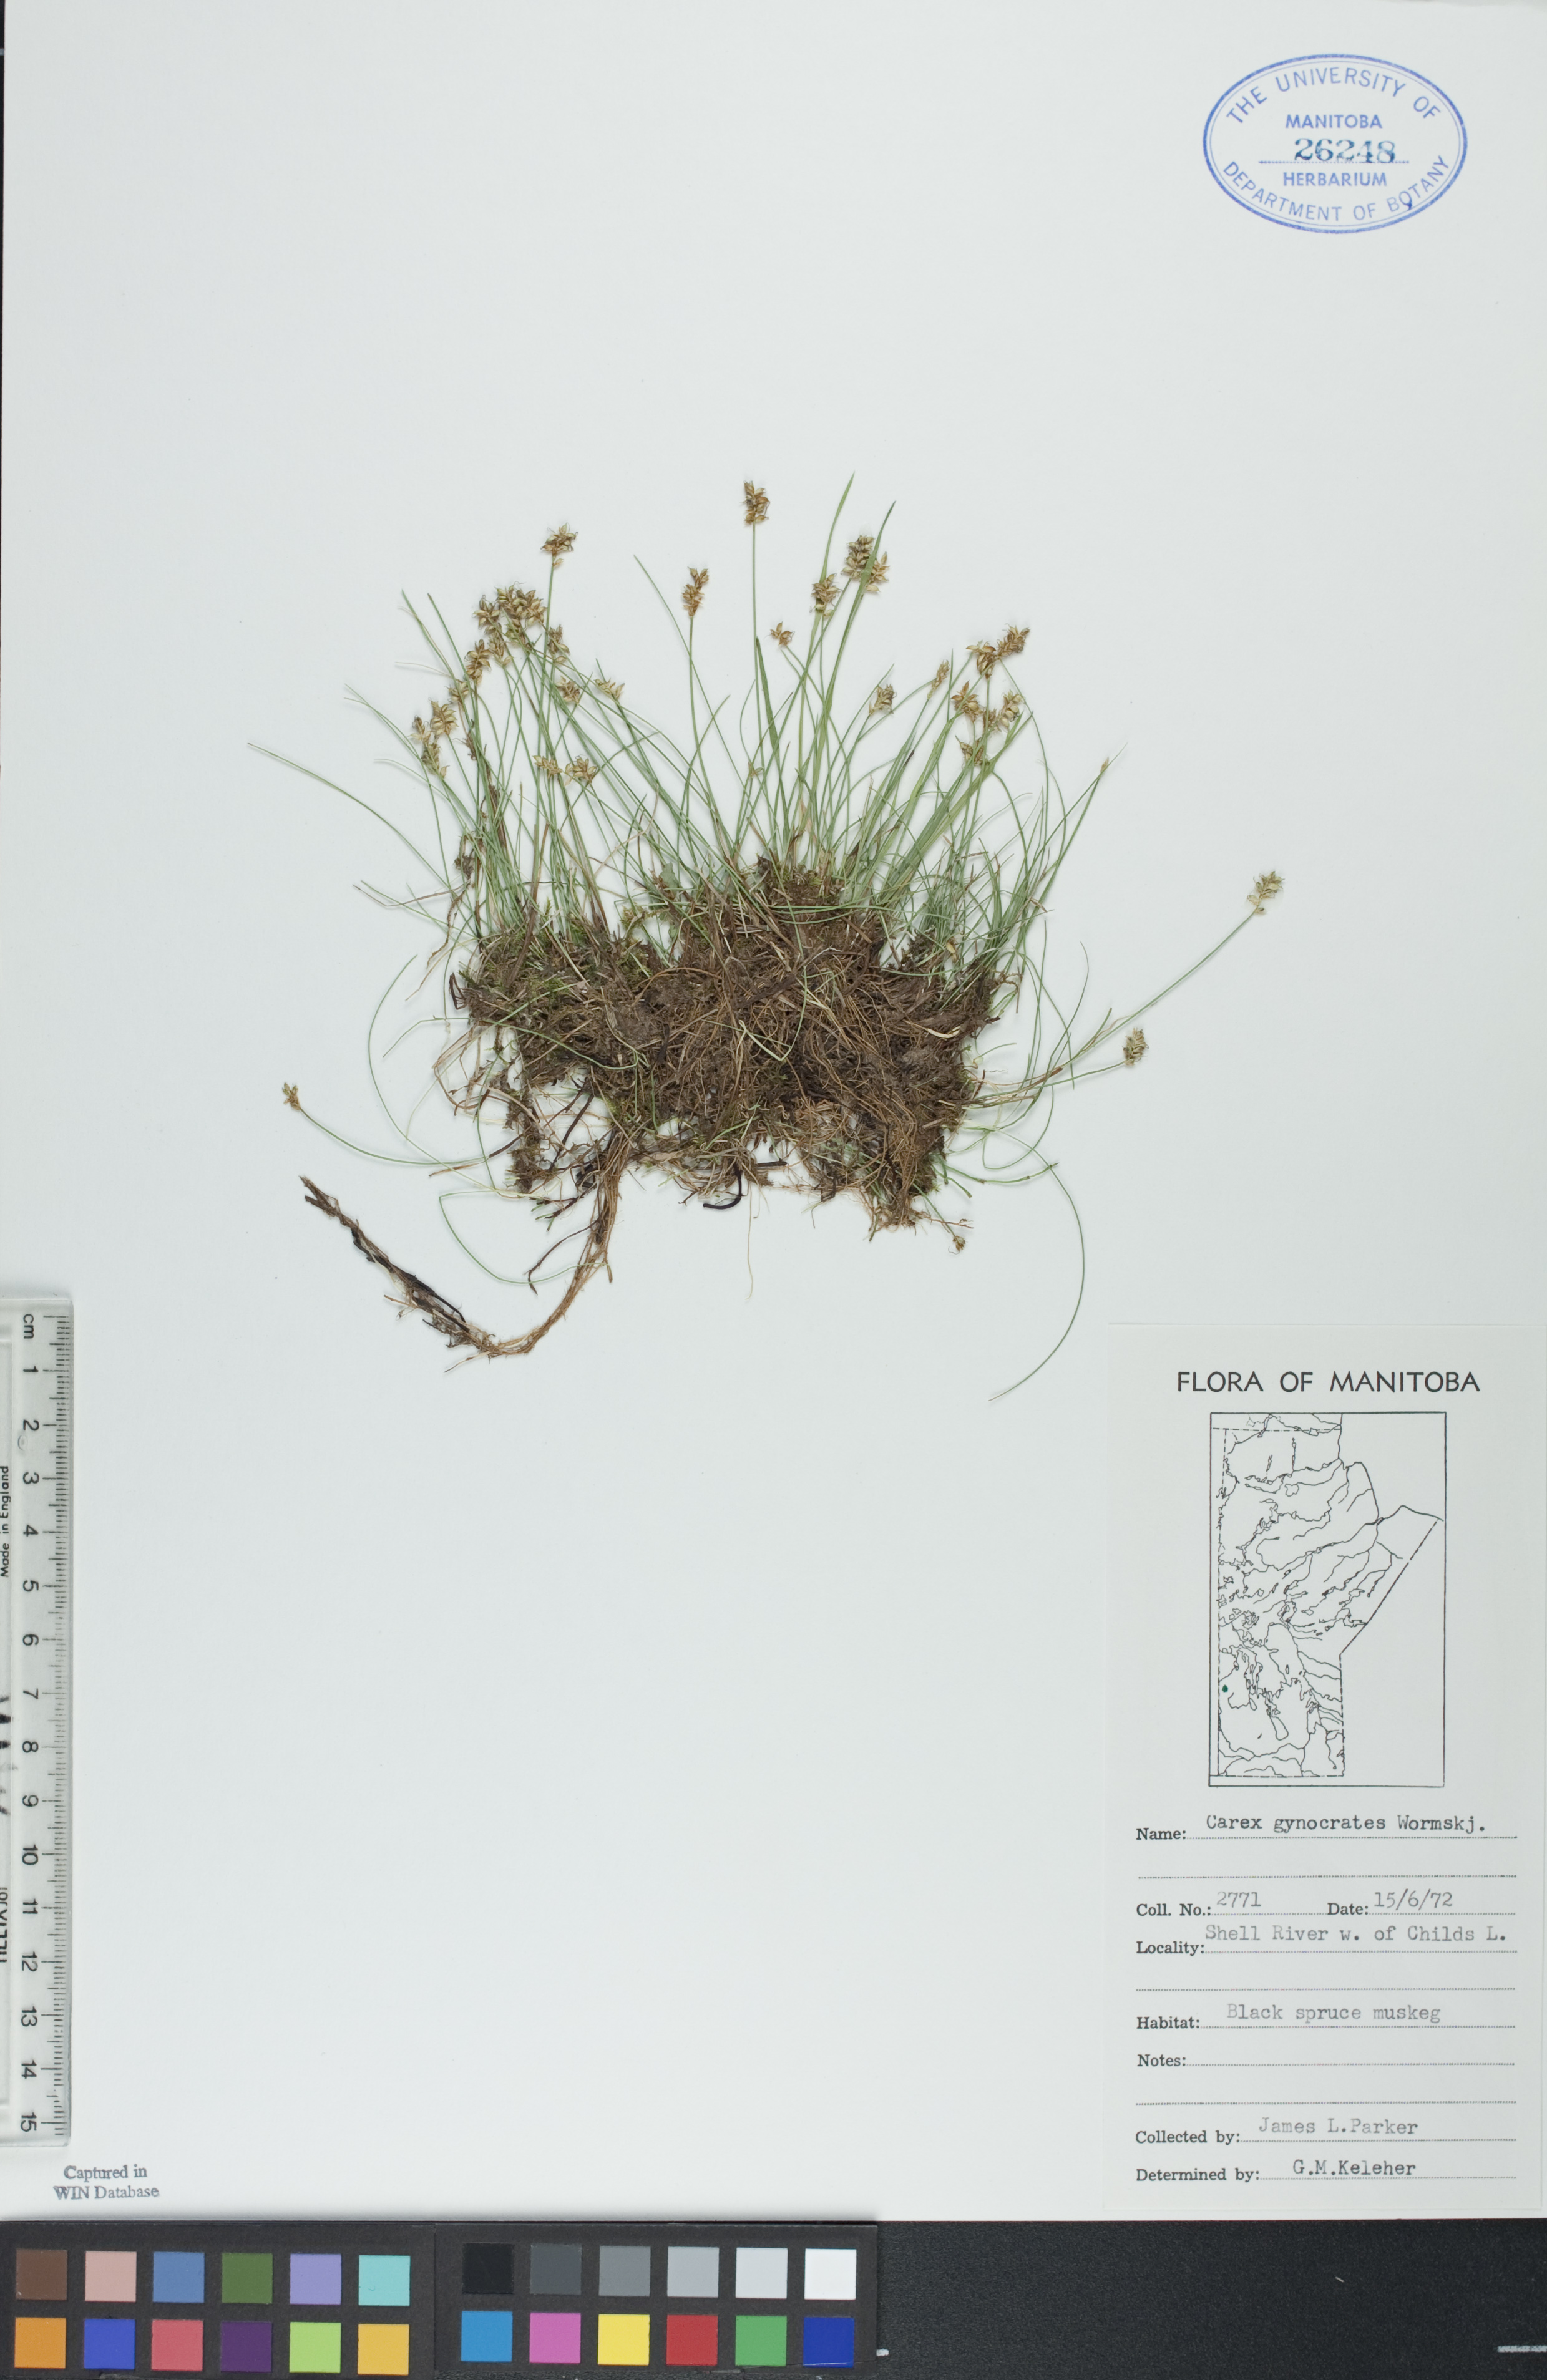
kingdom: Plantae
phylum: Tracheophyta
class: Liliopsida
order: Poales
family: Cyperaceae
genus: Carex
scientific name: Carex nardina
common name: Nard sedge
